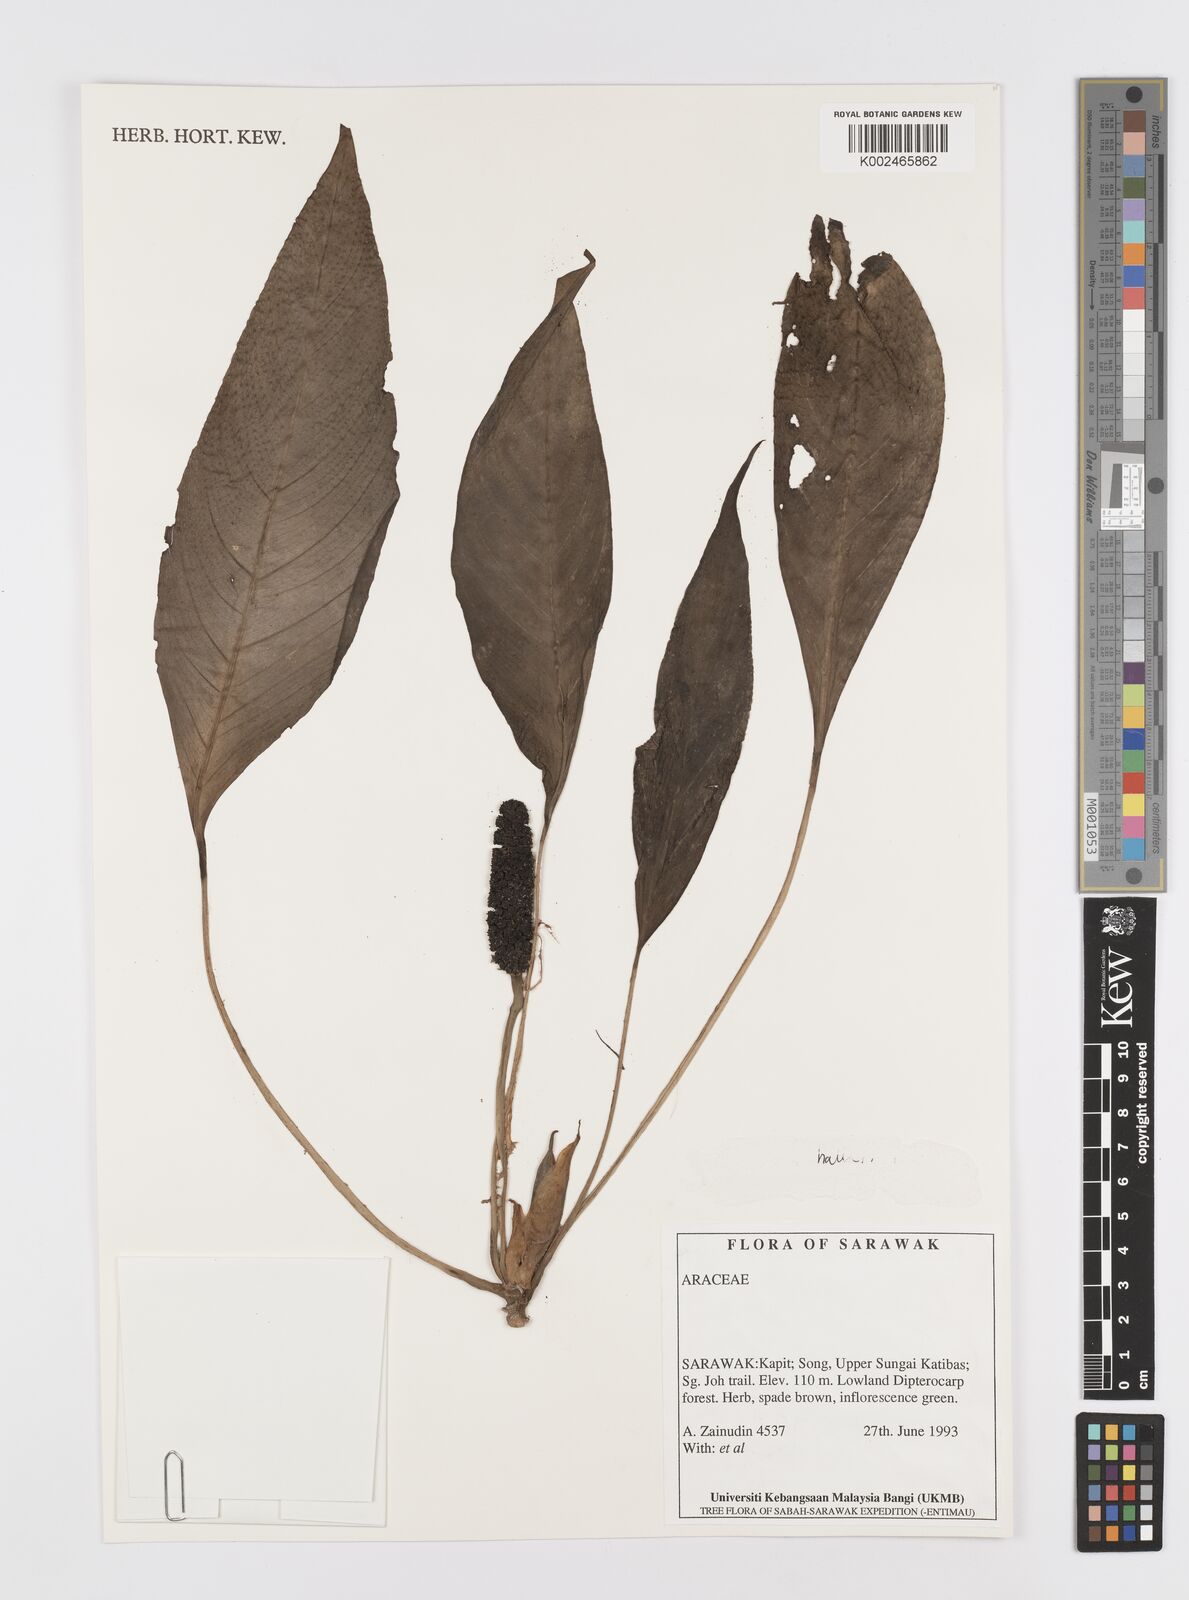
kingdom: Plantae
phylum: Tracheophyta
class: Liliopsida
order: Alismatales
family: Araceae
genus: Rhaphidophora
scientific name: Rhaphidophora
